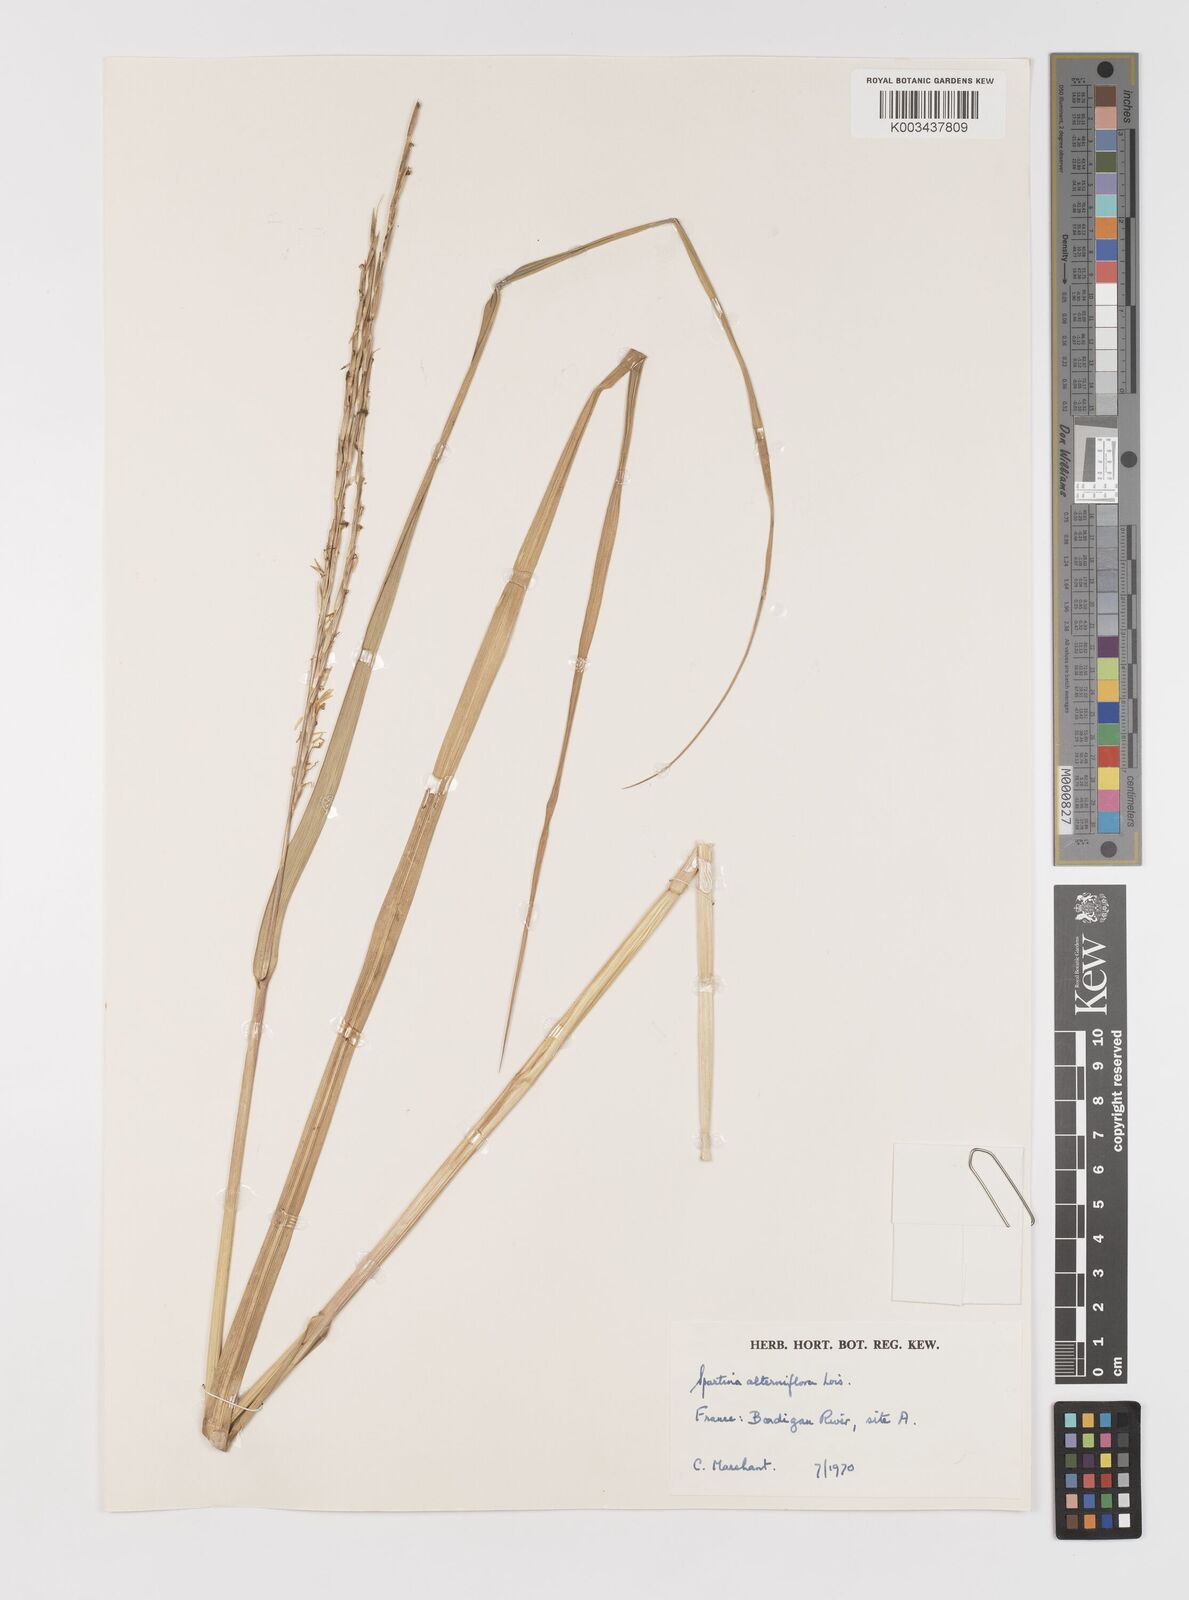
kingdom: Plantae
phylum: Tracheophyta
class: Liliopsida
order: Poales
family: Poaceae
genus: Sporobolus
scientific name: Sporobolus alterniflorus
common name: Atlantic cordgrass
